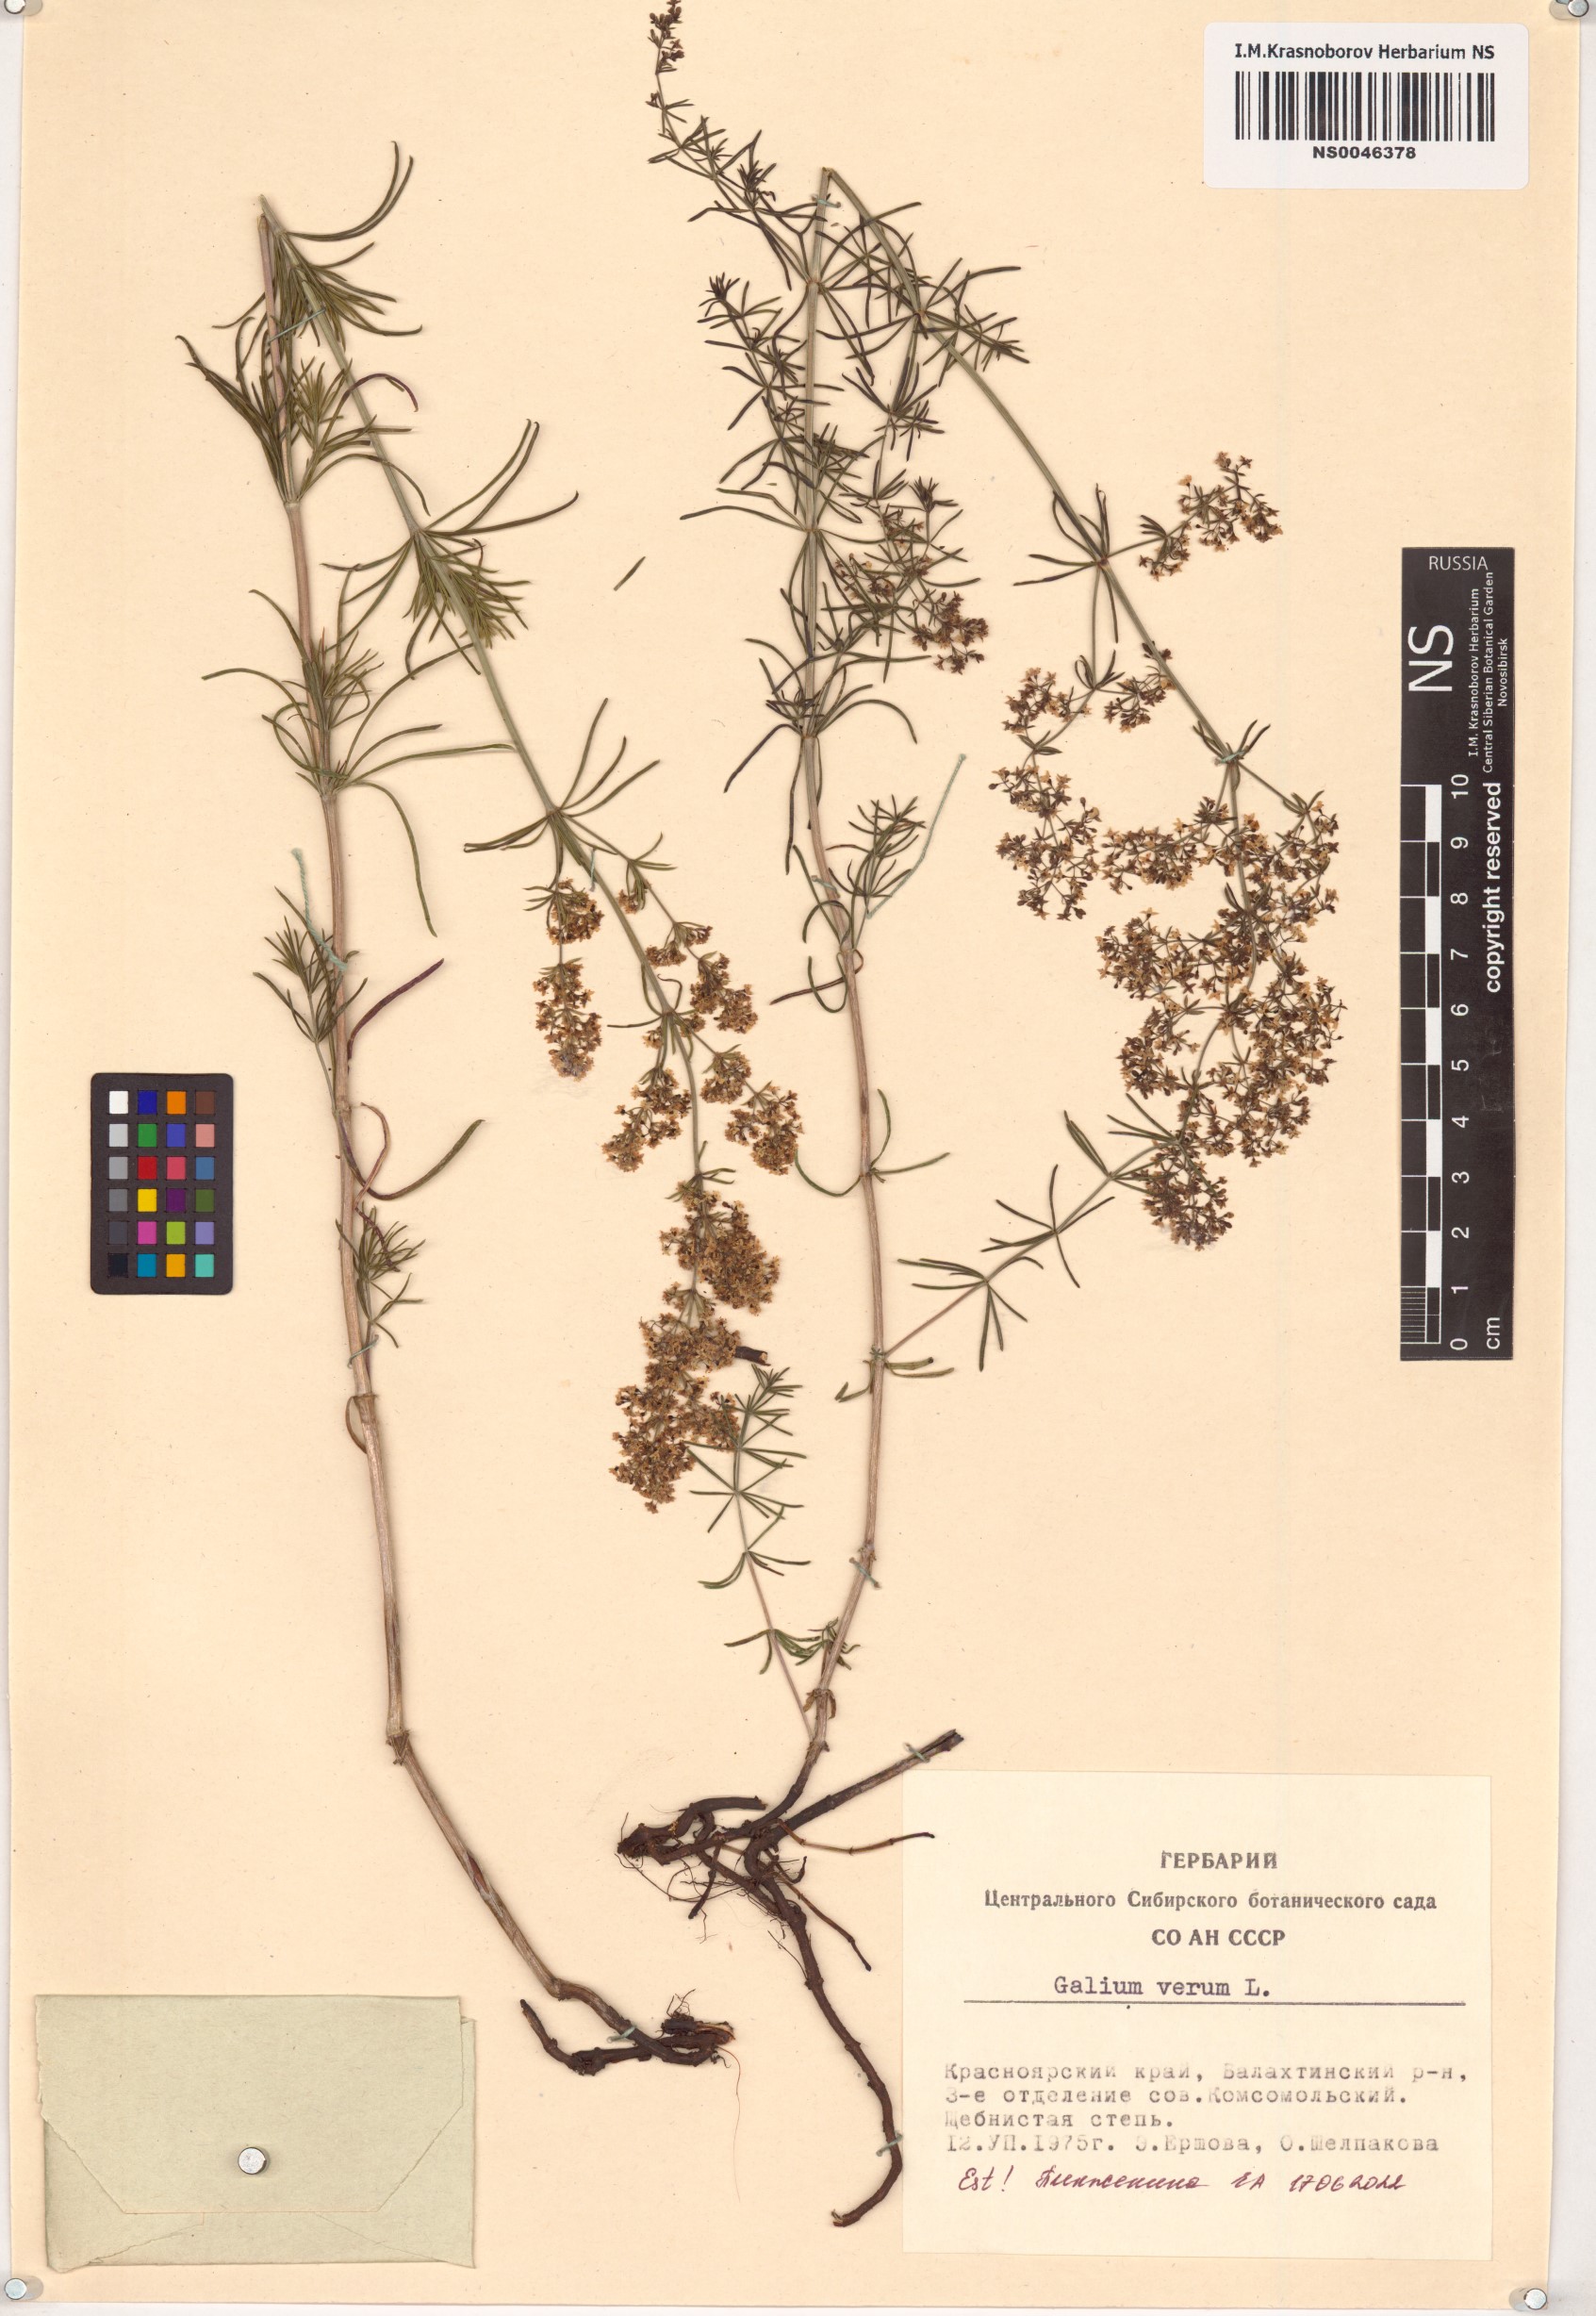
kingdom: Plantae
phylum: Tracheophyta
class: Magnoliopsida
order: Gentianales
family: Rubiaceae
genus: Galium
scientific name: Galium verum
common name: Lady's bedstraw
